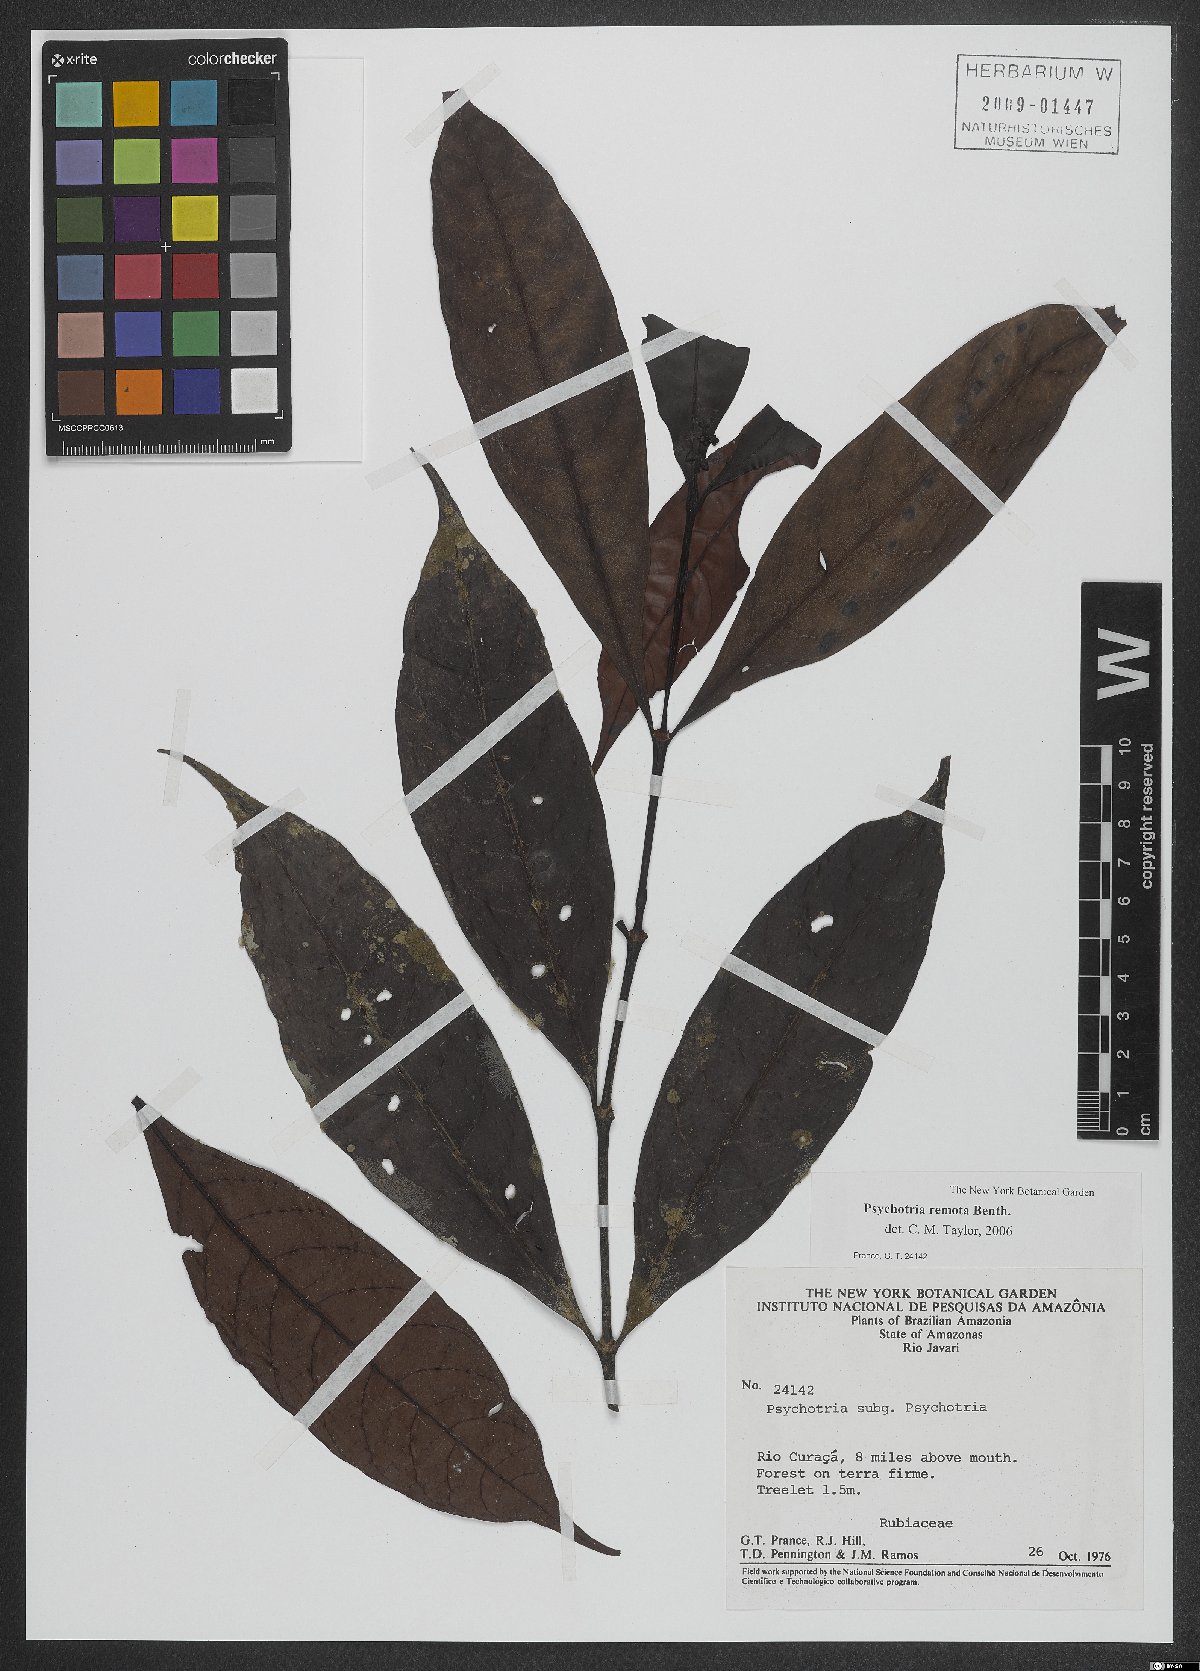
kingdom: Plantae
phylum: Tracheophyta
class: Magnoliopsida
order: Gentianales
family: Rubiaceae
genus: Psychotria
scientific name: Psychotria remota
